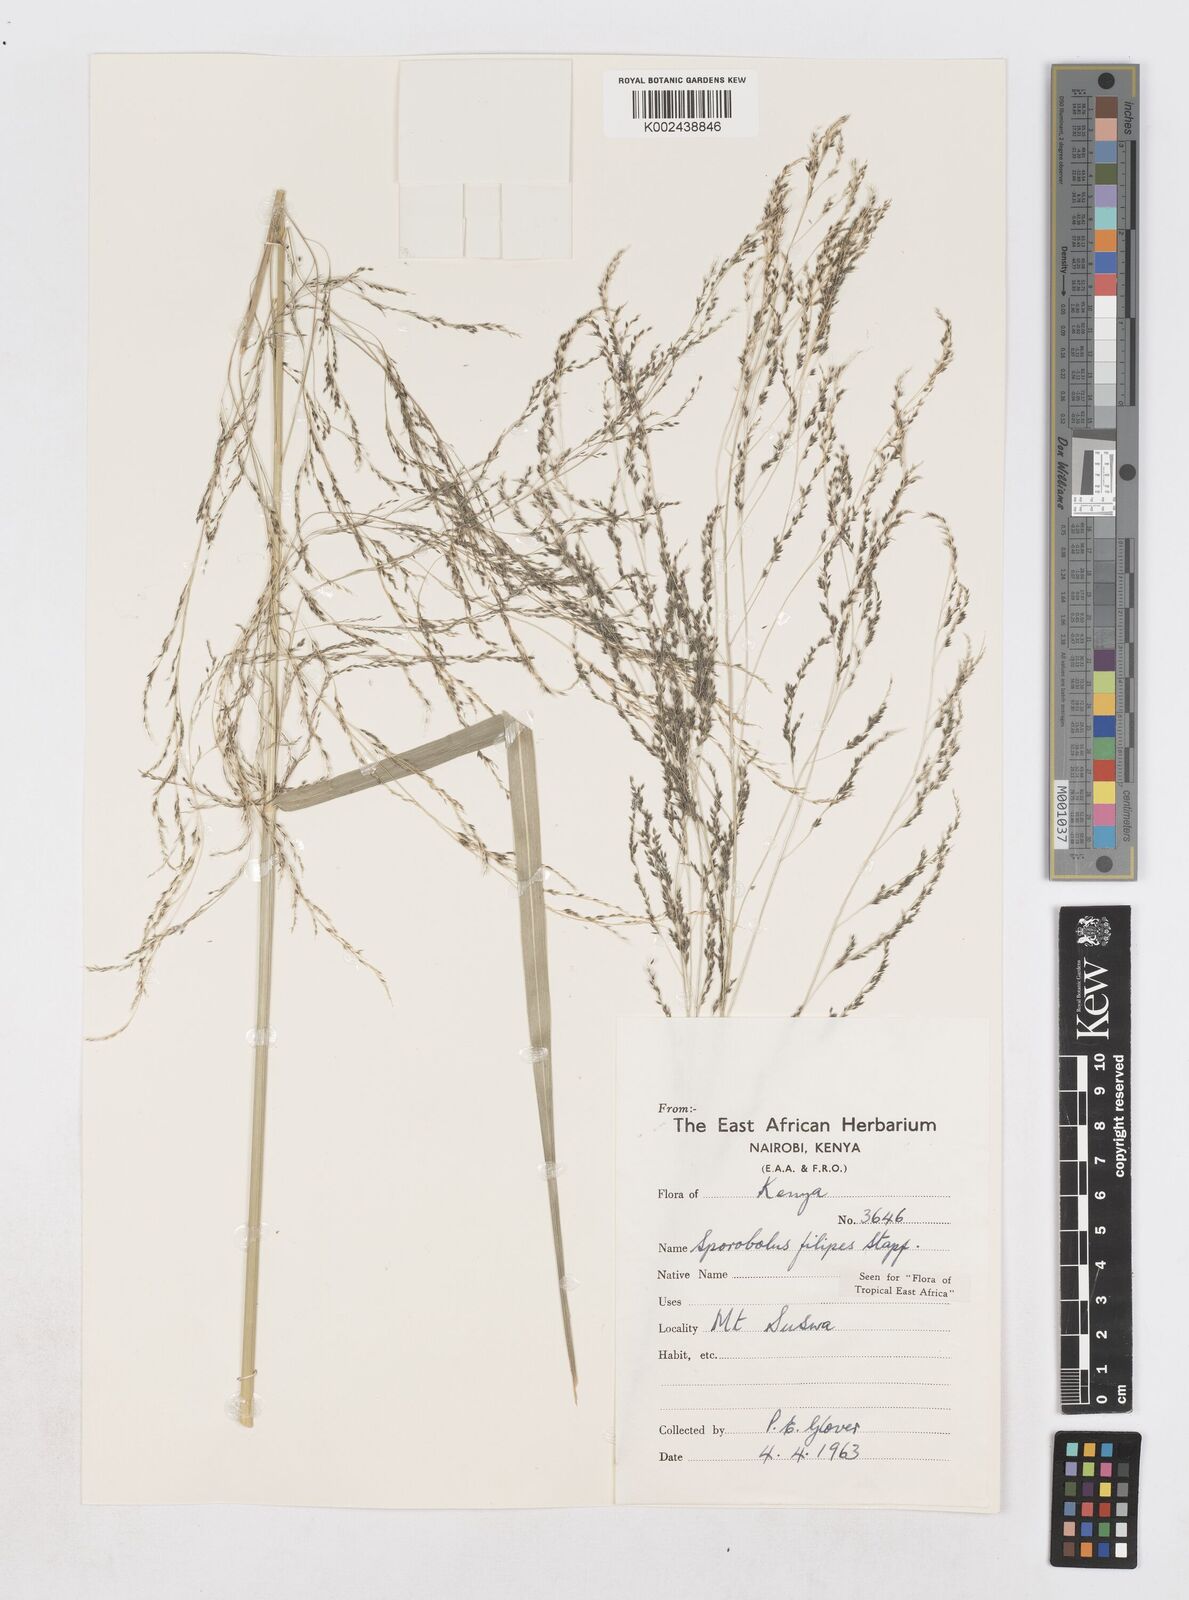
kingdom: Plantae
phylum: Tracheophyta
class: Liliopsida
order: Poales
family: Poaceae
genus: Sporobolus
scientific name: Sporobolus agrostoides
